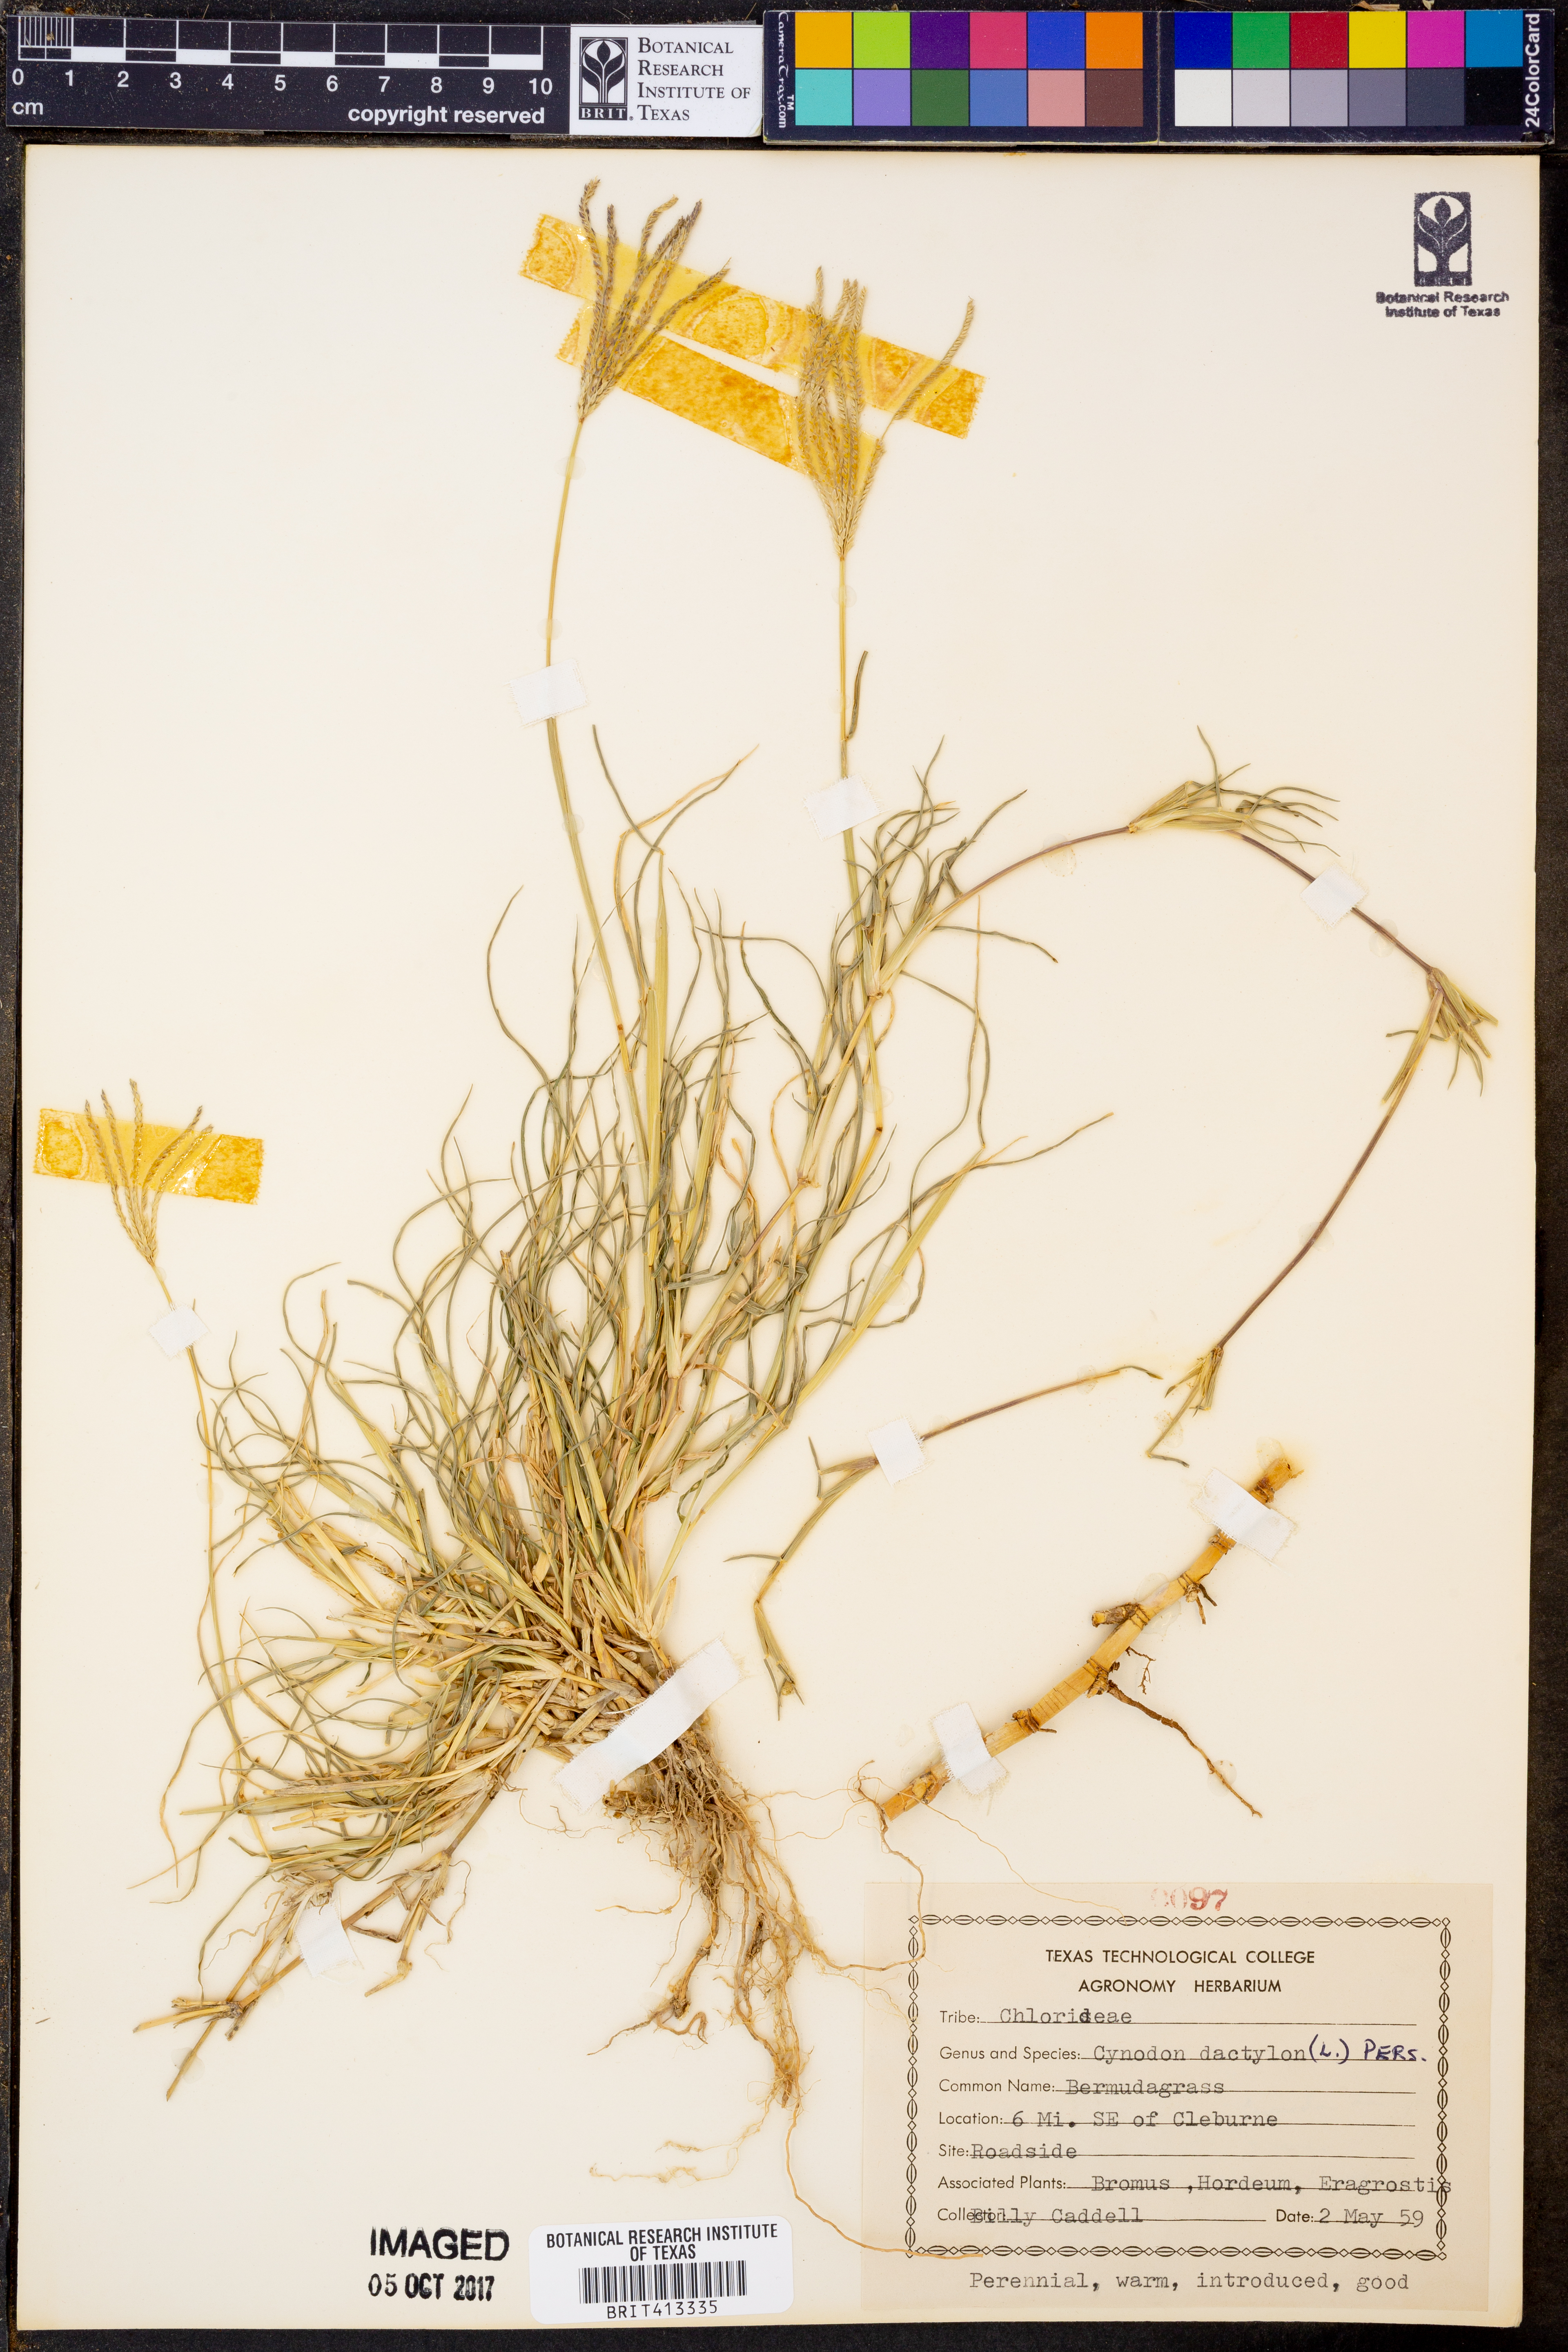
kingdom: Plantae
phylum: Tracheophyta
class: Liliopsida
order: Poales
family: Poaceae
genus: Cynodon
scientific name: Cynodon dactylon
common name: Bermuda grass
